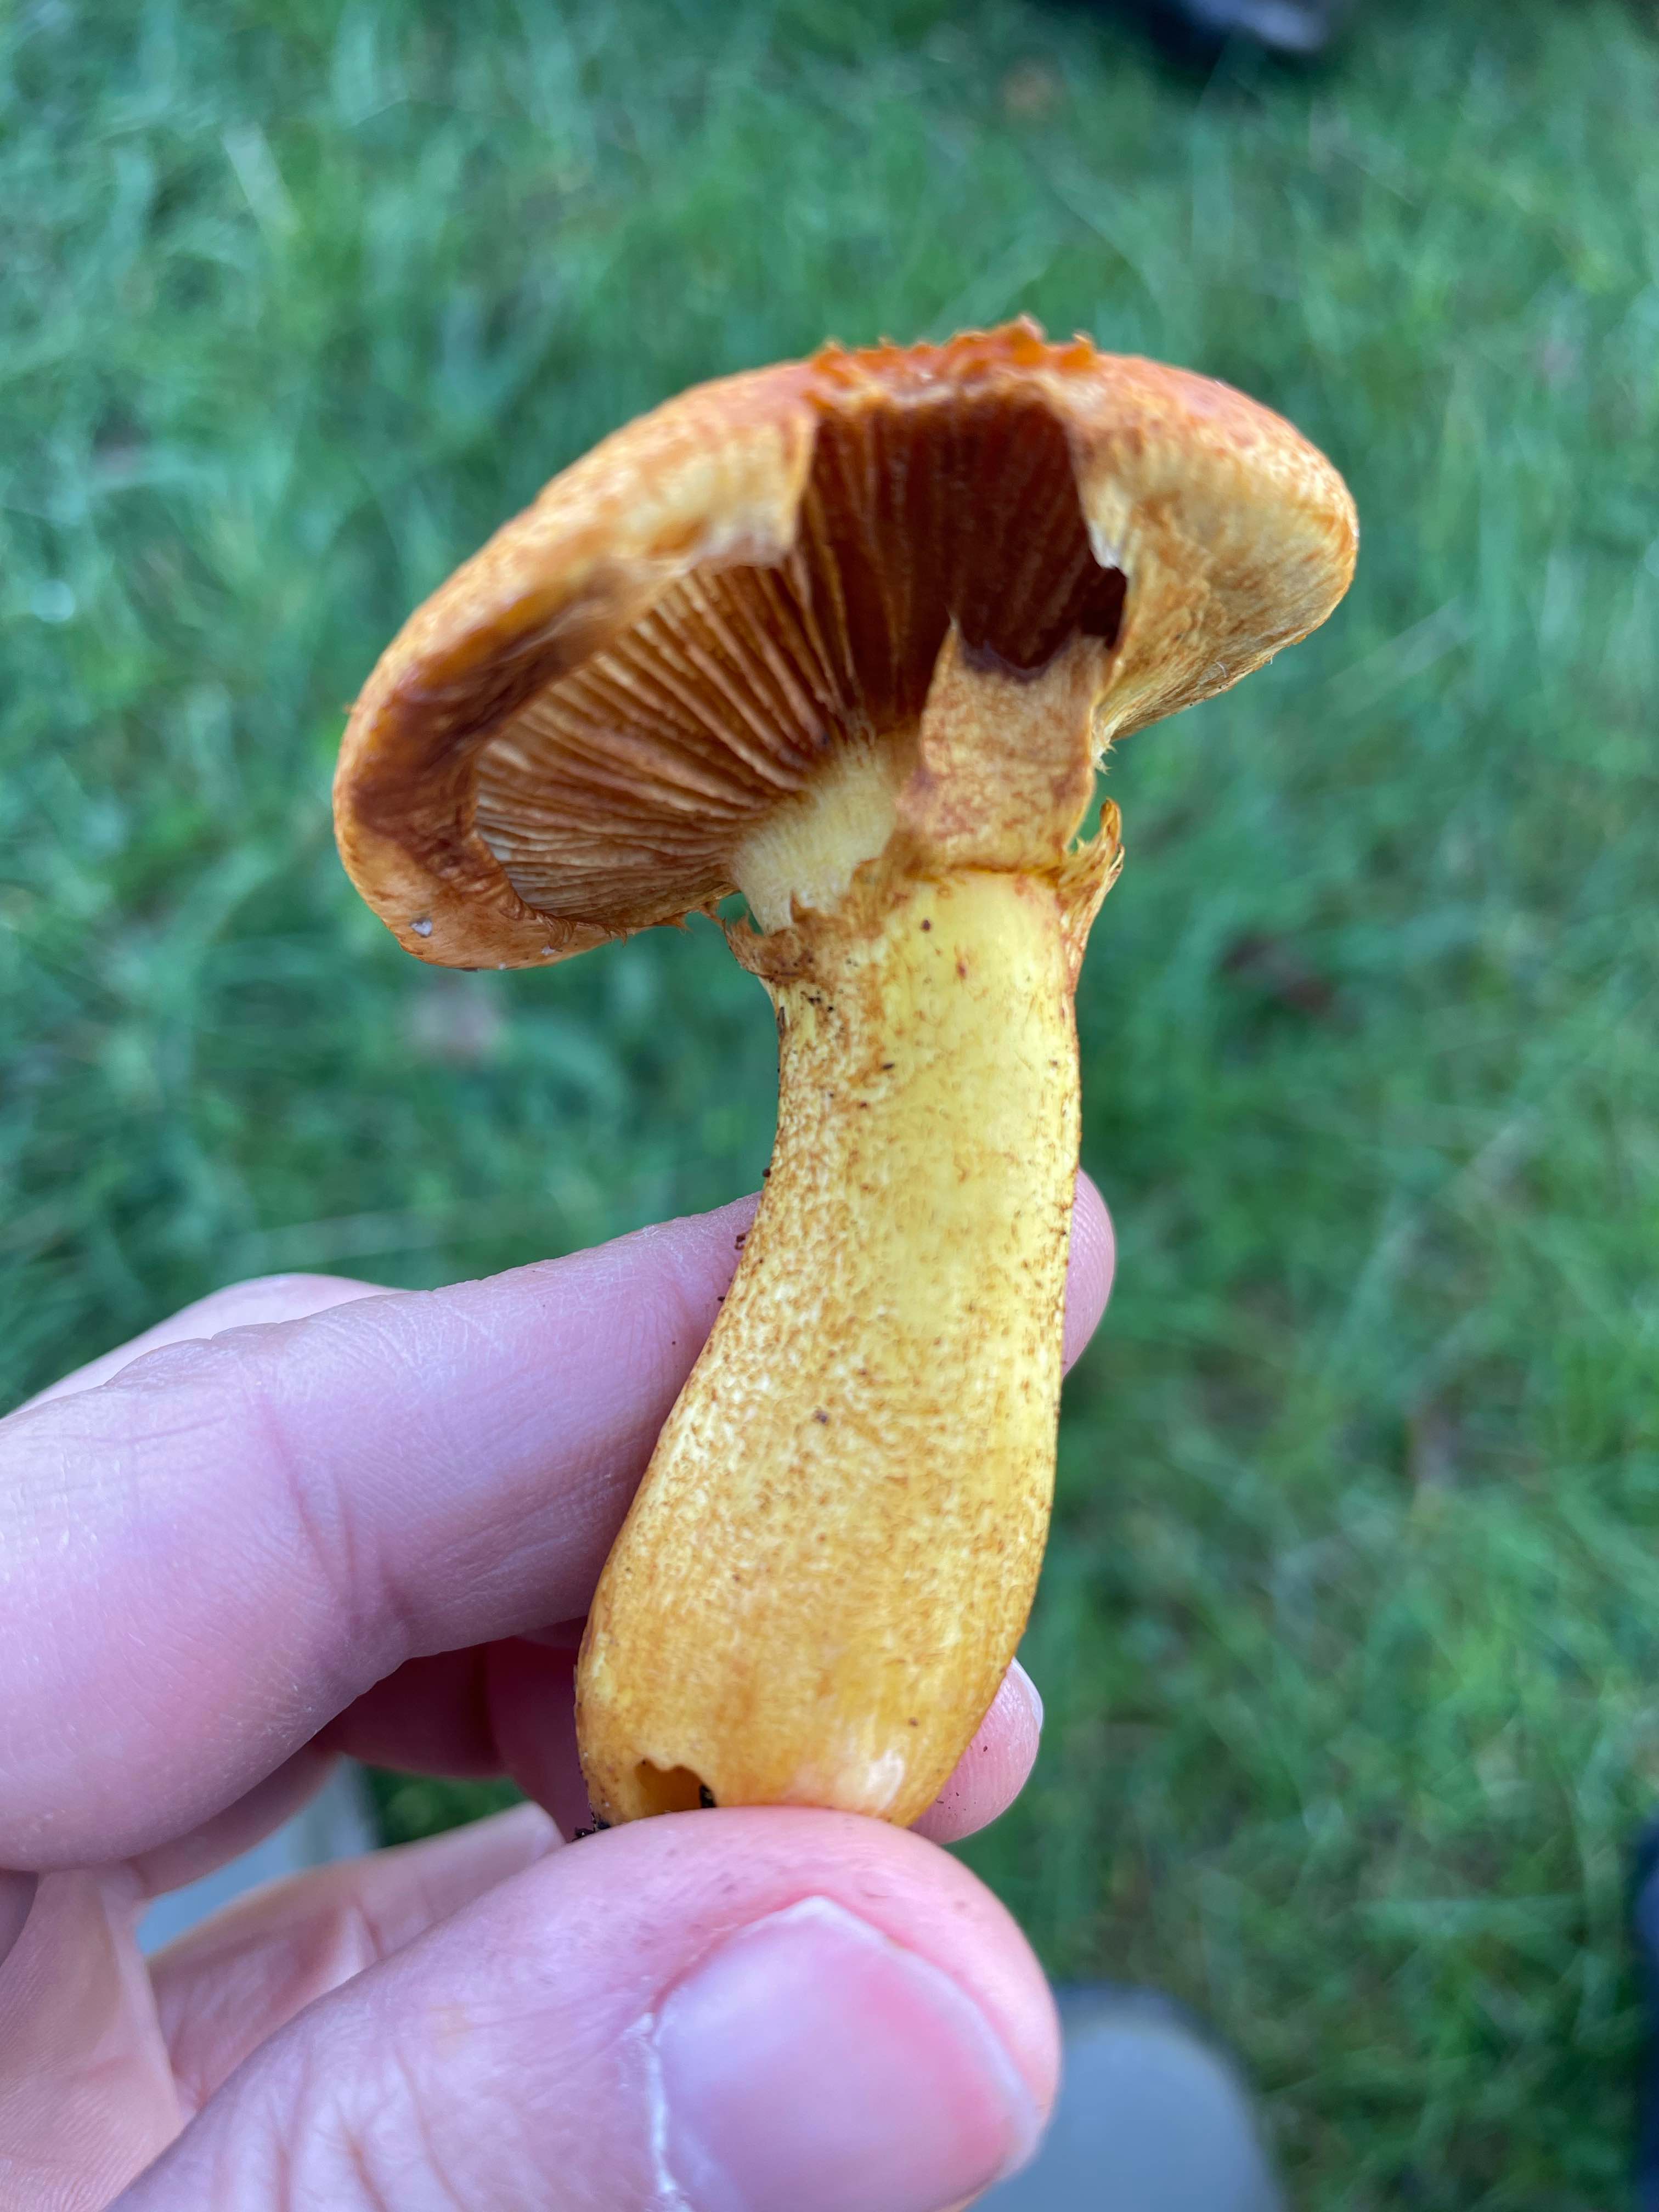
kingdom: Fungi
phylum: Basidiomycota
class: Agaricomycetes
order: Agaricales
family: Hymenogastraceae
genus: Gymnopilus
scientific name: Gymnopilus spectabilis
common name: fibret flammehat
